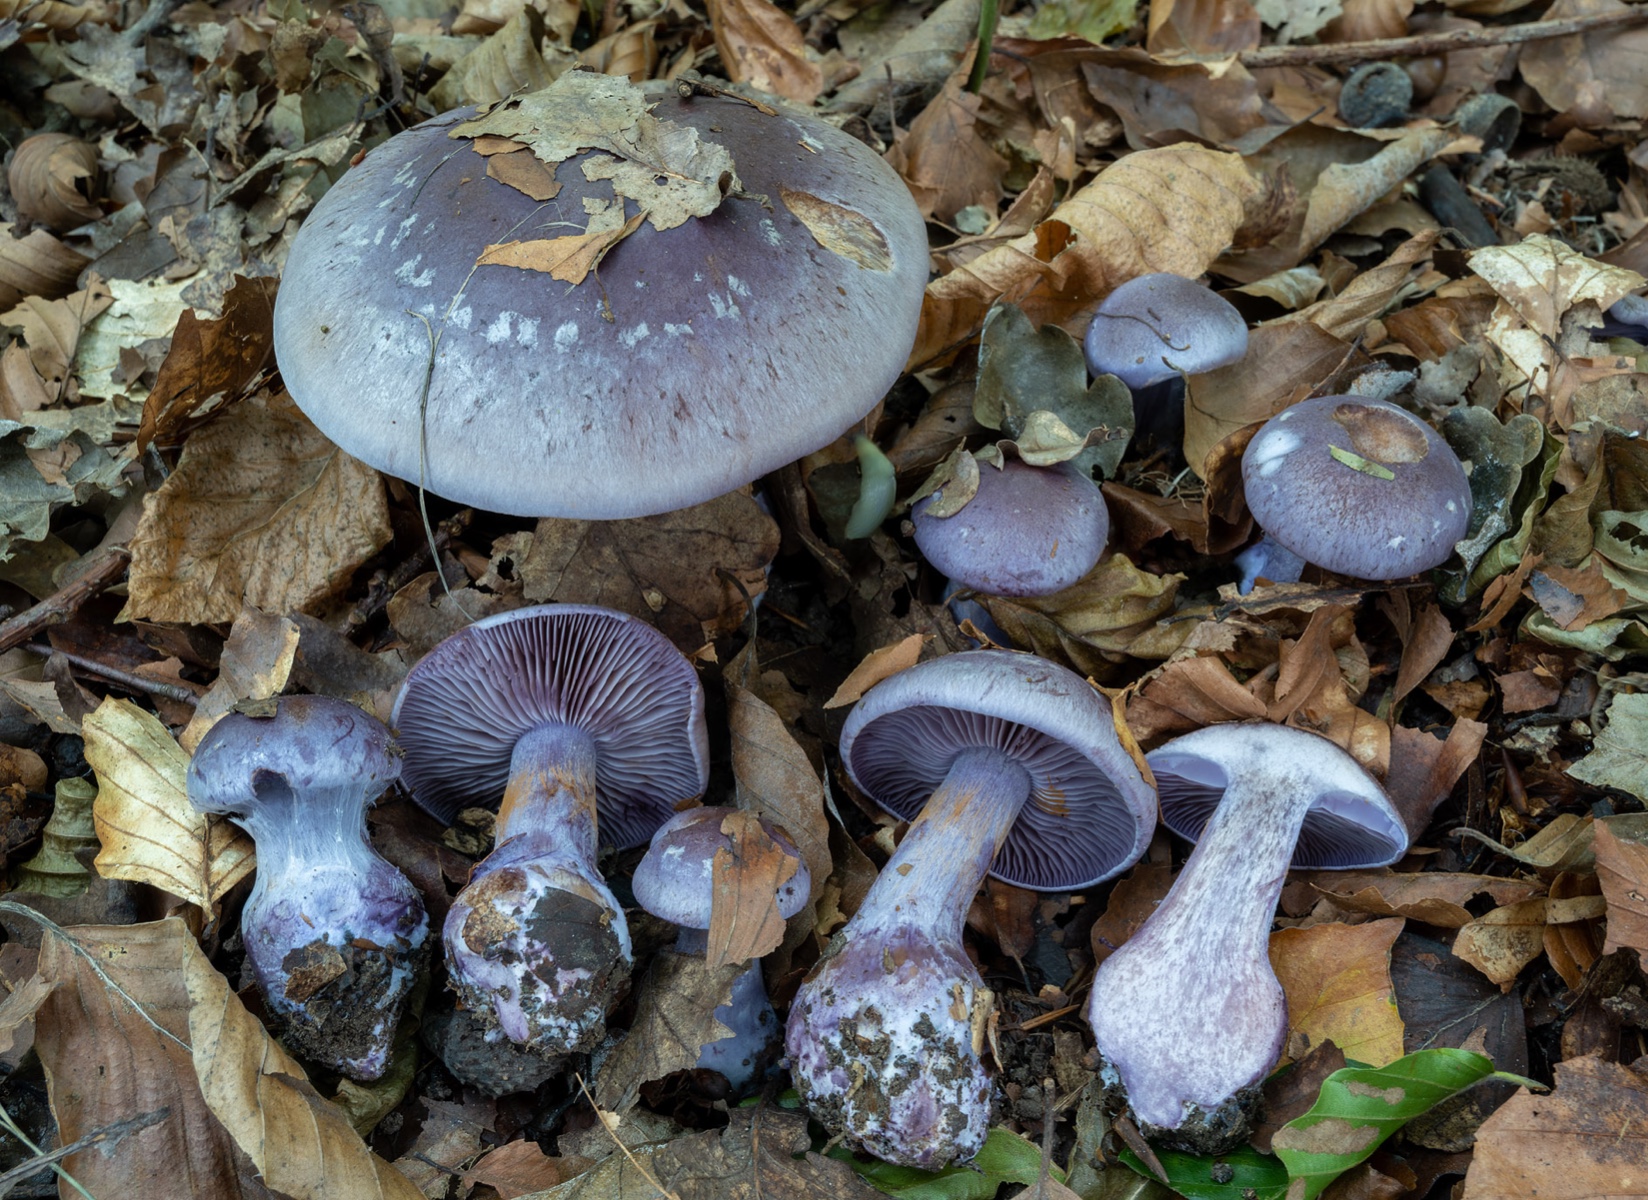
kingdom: Fungi
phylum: Basidiomycota
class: Agaricomycetes
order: Agaricales
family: Cortinariaceae
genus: Thaxterogaster
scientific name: Thaxterogaster collocandoides
